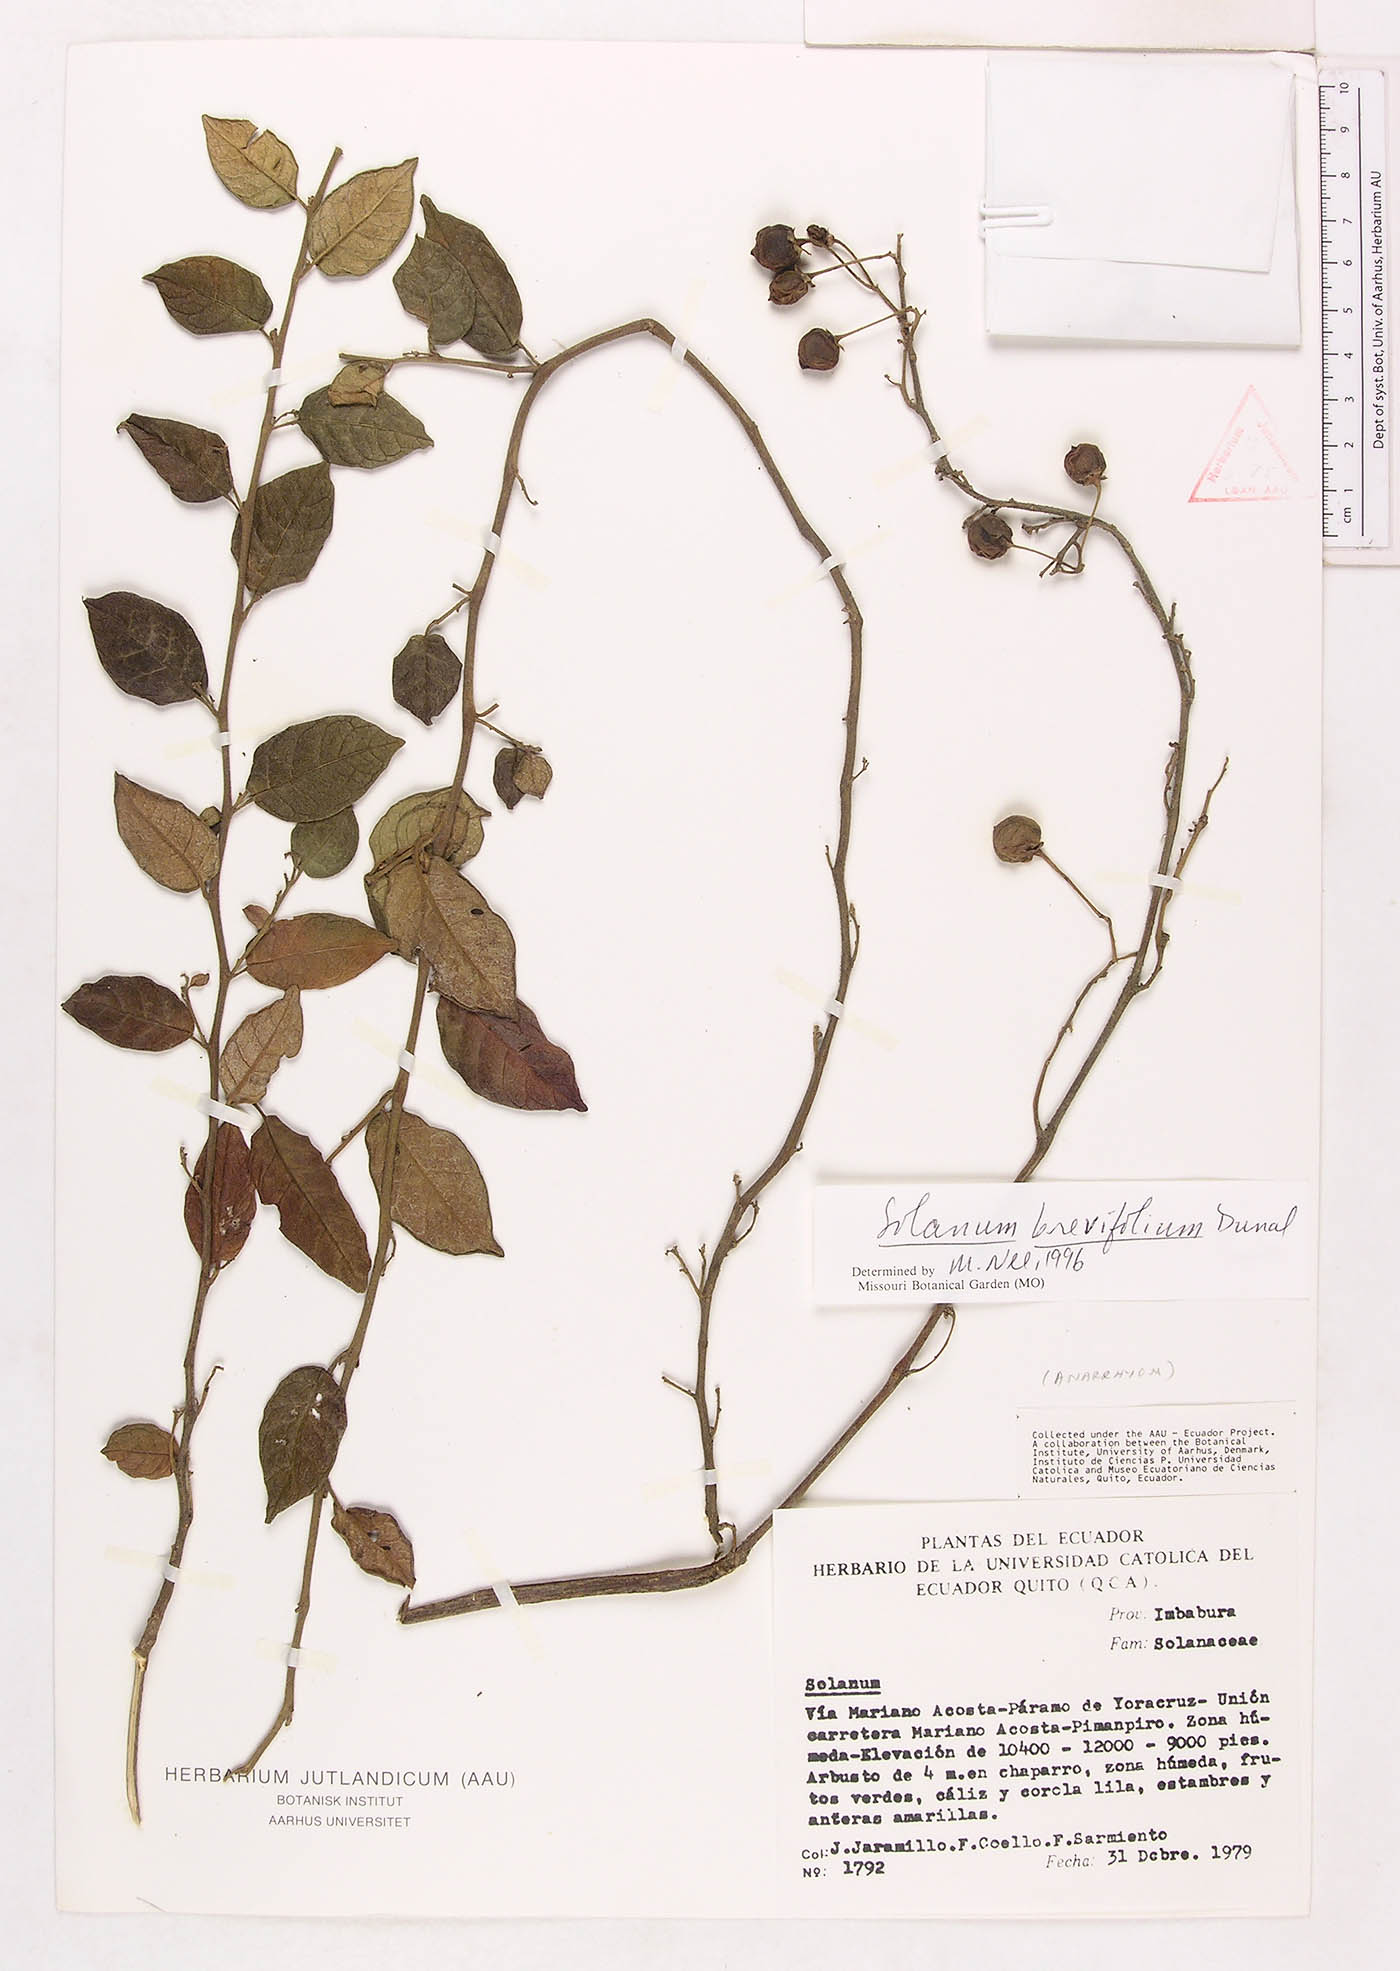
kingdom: Plantae
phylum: Tracheophyta
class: Magnoliopsida
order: Solanales
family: Solanaceae
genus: Solanum
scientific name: Solanum brevifolium
